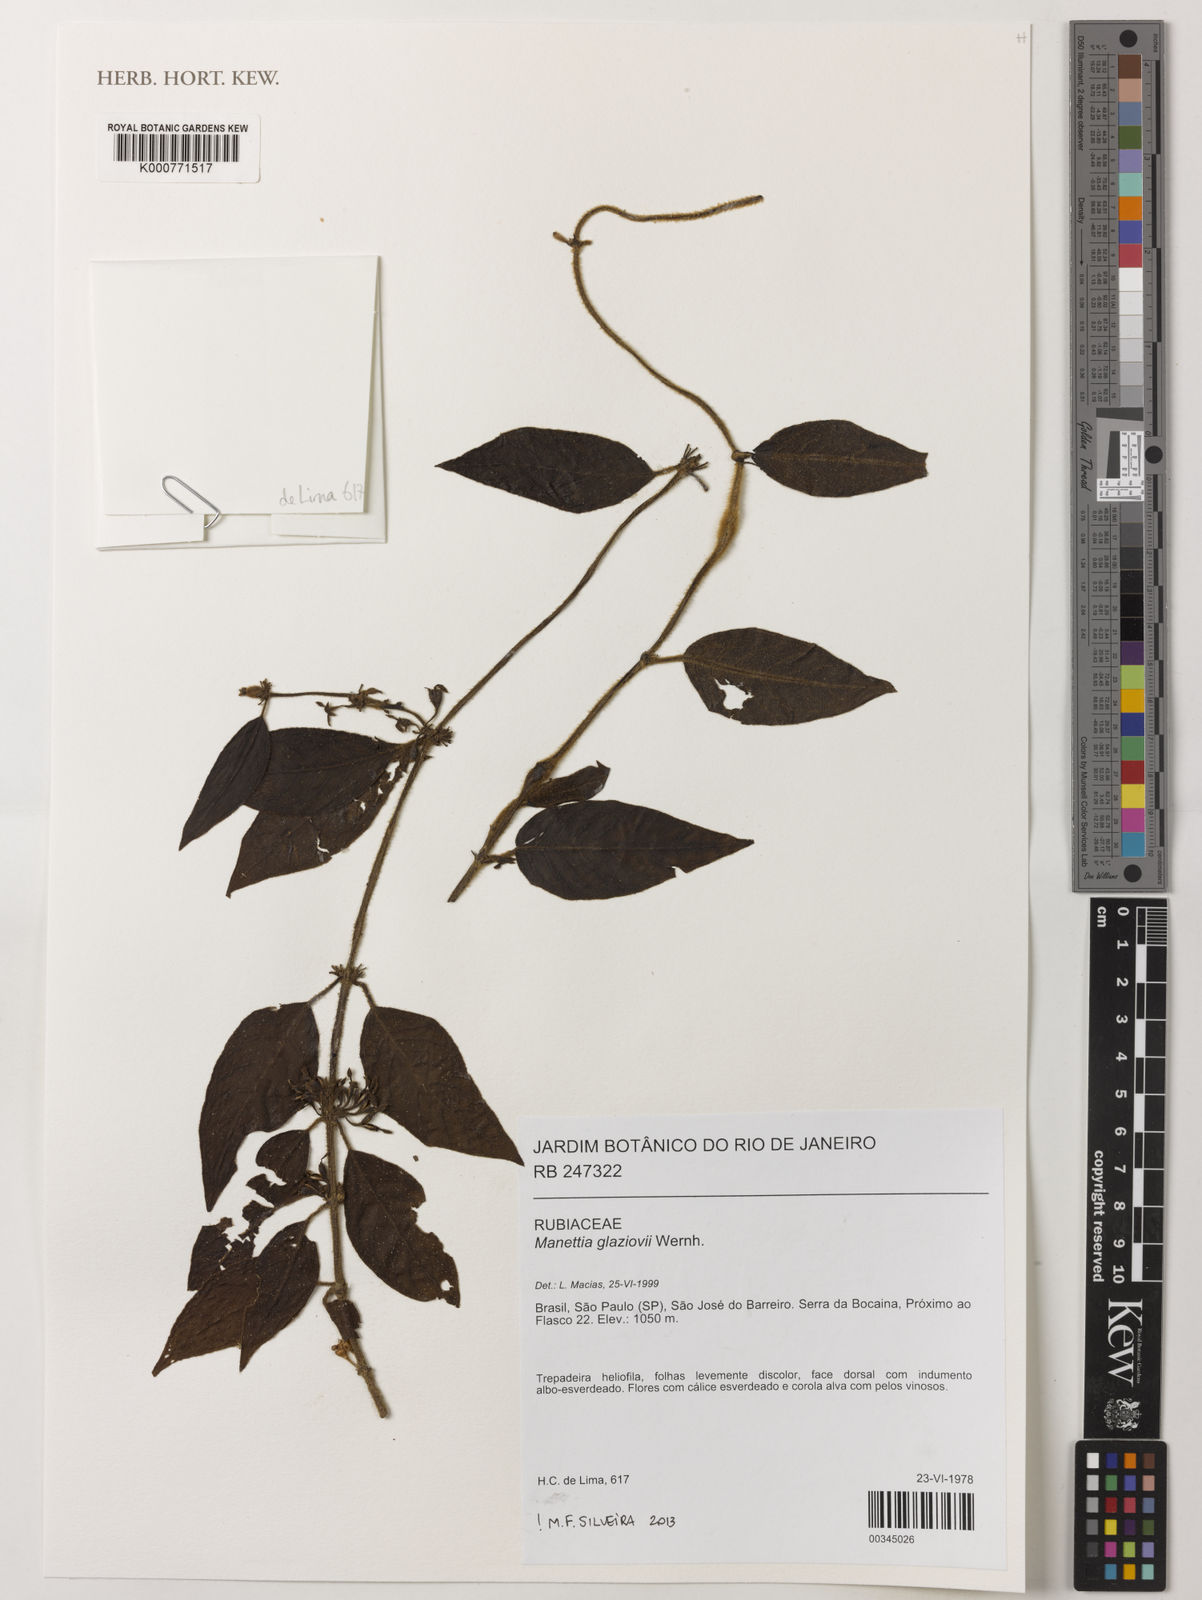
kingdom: Plantae
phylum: Tracheophyta
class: Magnoliopsida
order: Gentianales
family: Rubiaceae
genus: Manettia
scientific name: Manettia glaziovii
